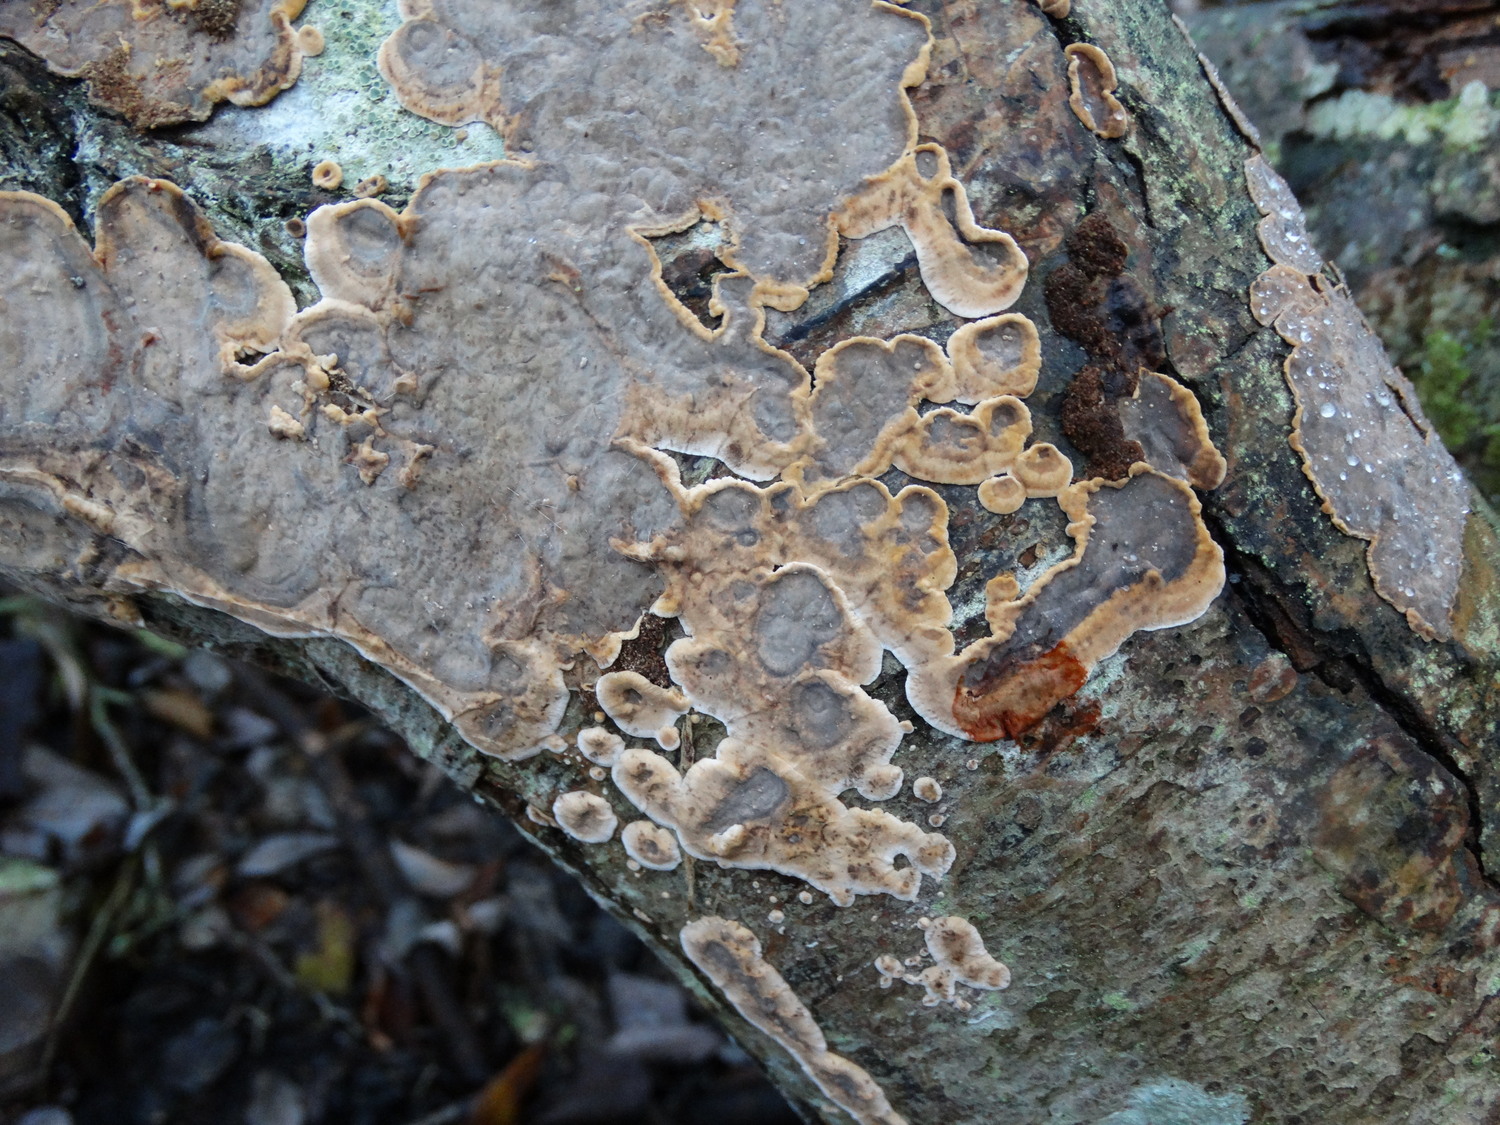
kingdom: Fungi
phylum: Basidiomycota
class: Agaricomycetes
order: Russulales
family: Stereaceae
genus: Stereum
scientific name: Stereum rugosum
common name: rynket lædersvamp
